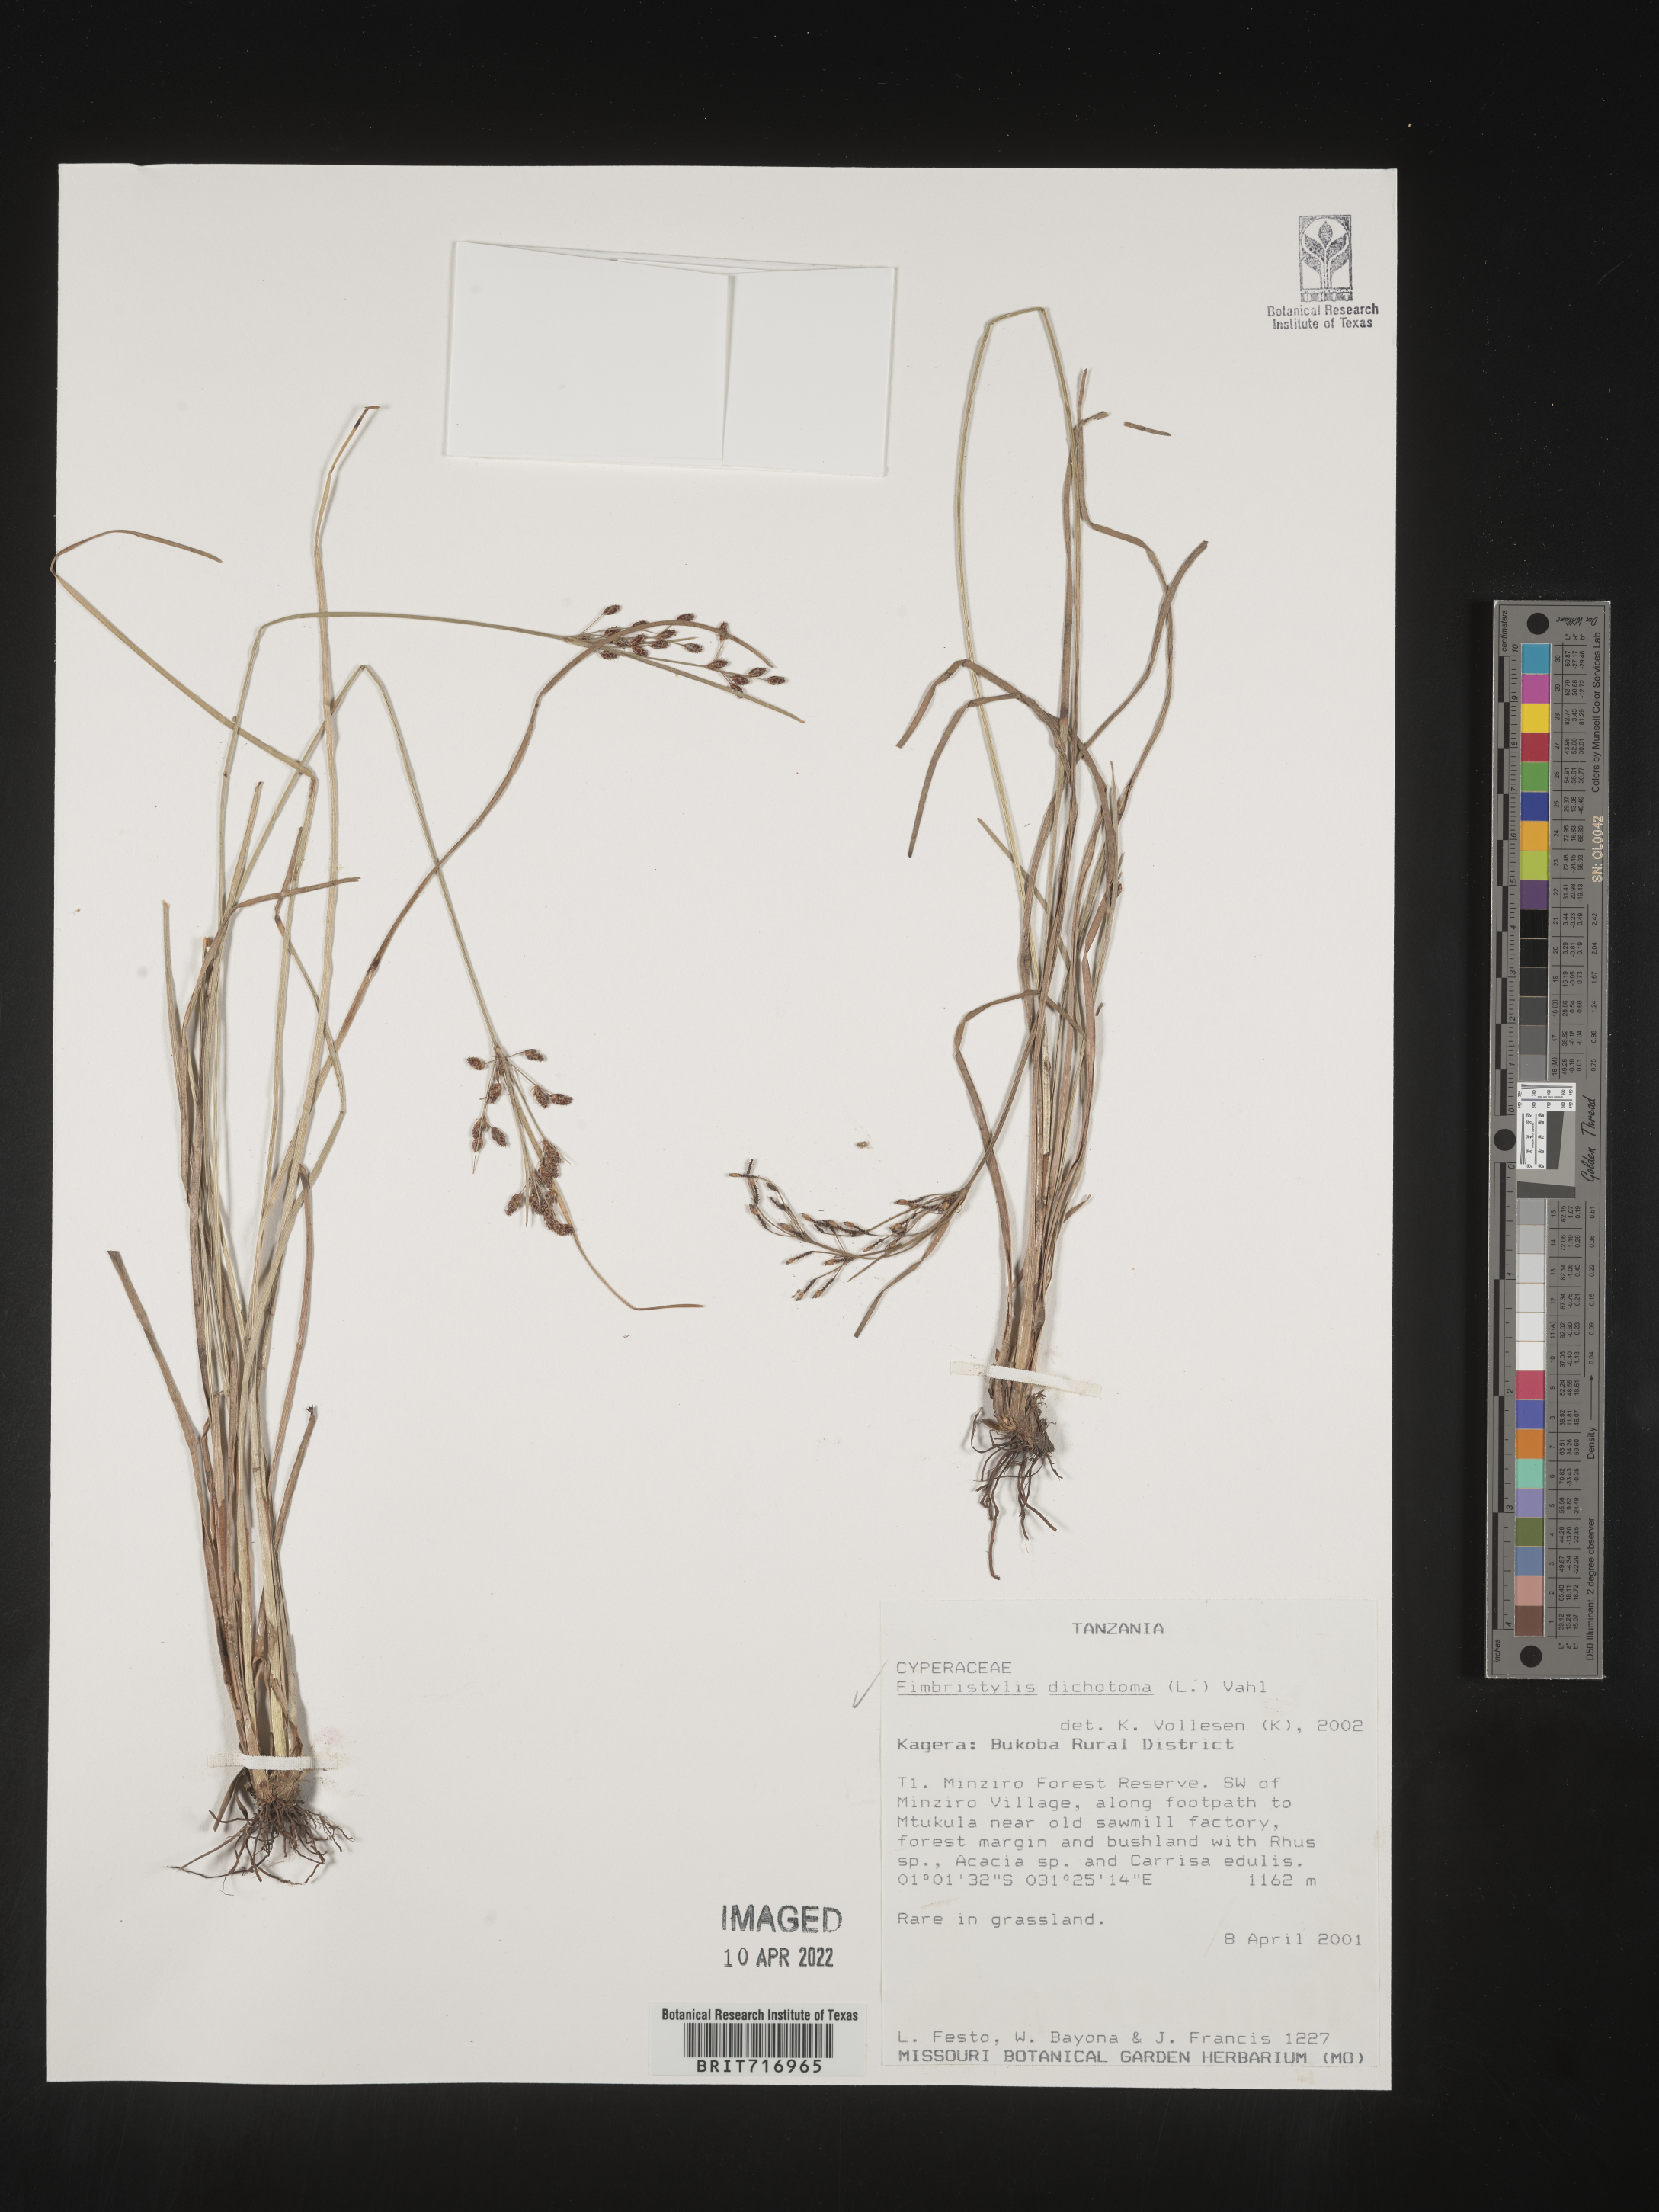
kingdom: Plantae
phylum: Tracheophyta
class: Liliopsida
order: Poales
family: Cyperaceae
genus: Fimbristylis
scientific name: Fimbristylis
